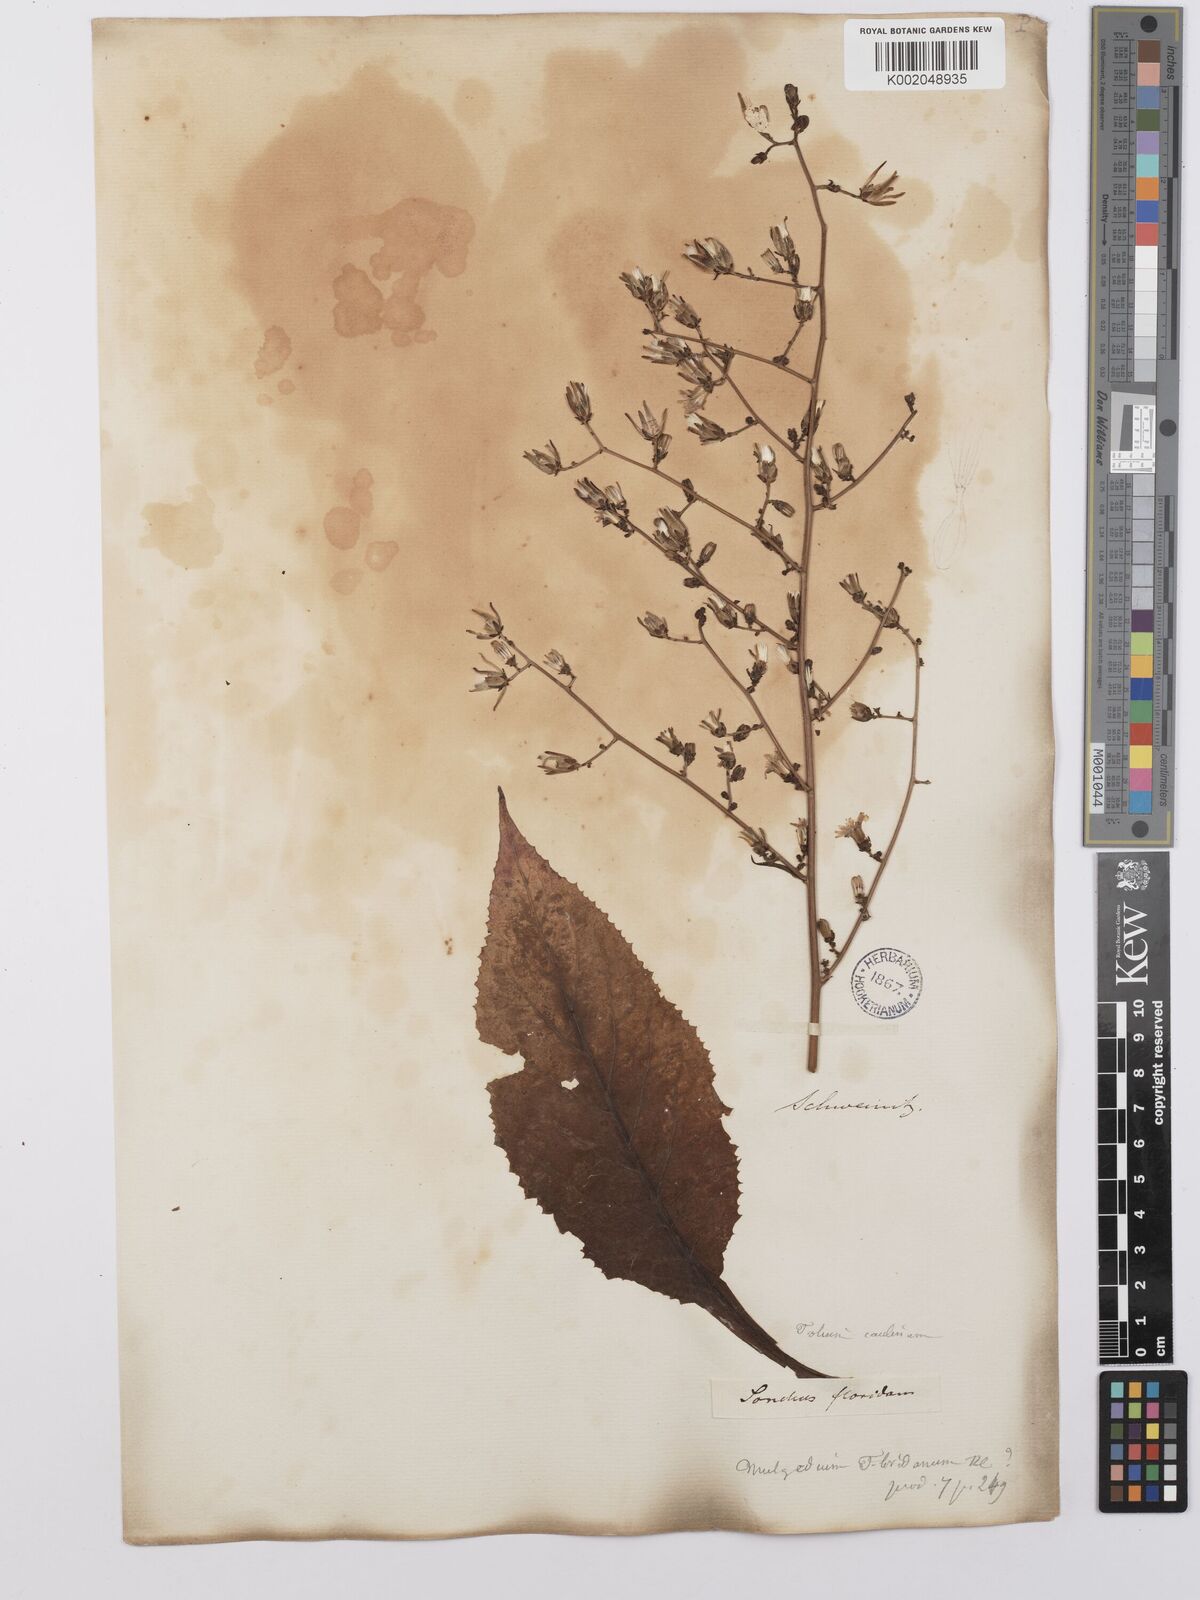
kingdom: Plantae
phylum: Tracheophyta
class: Magnoliopsida
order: Asterales
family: Asteraceae
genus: Lactuca
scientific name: Lactuca floridana
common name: Woodland lettuce
